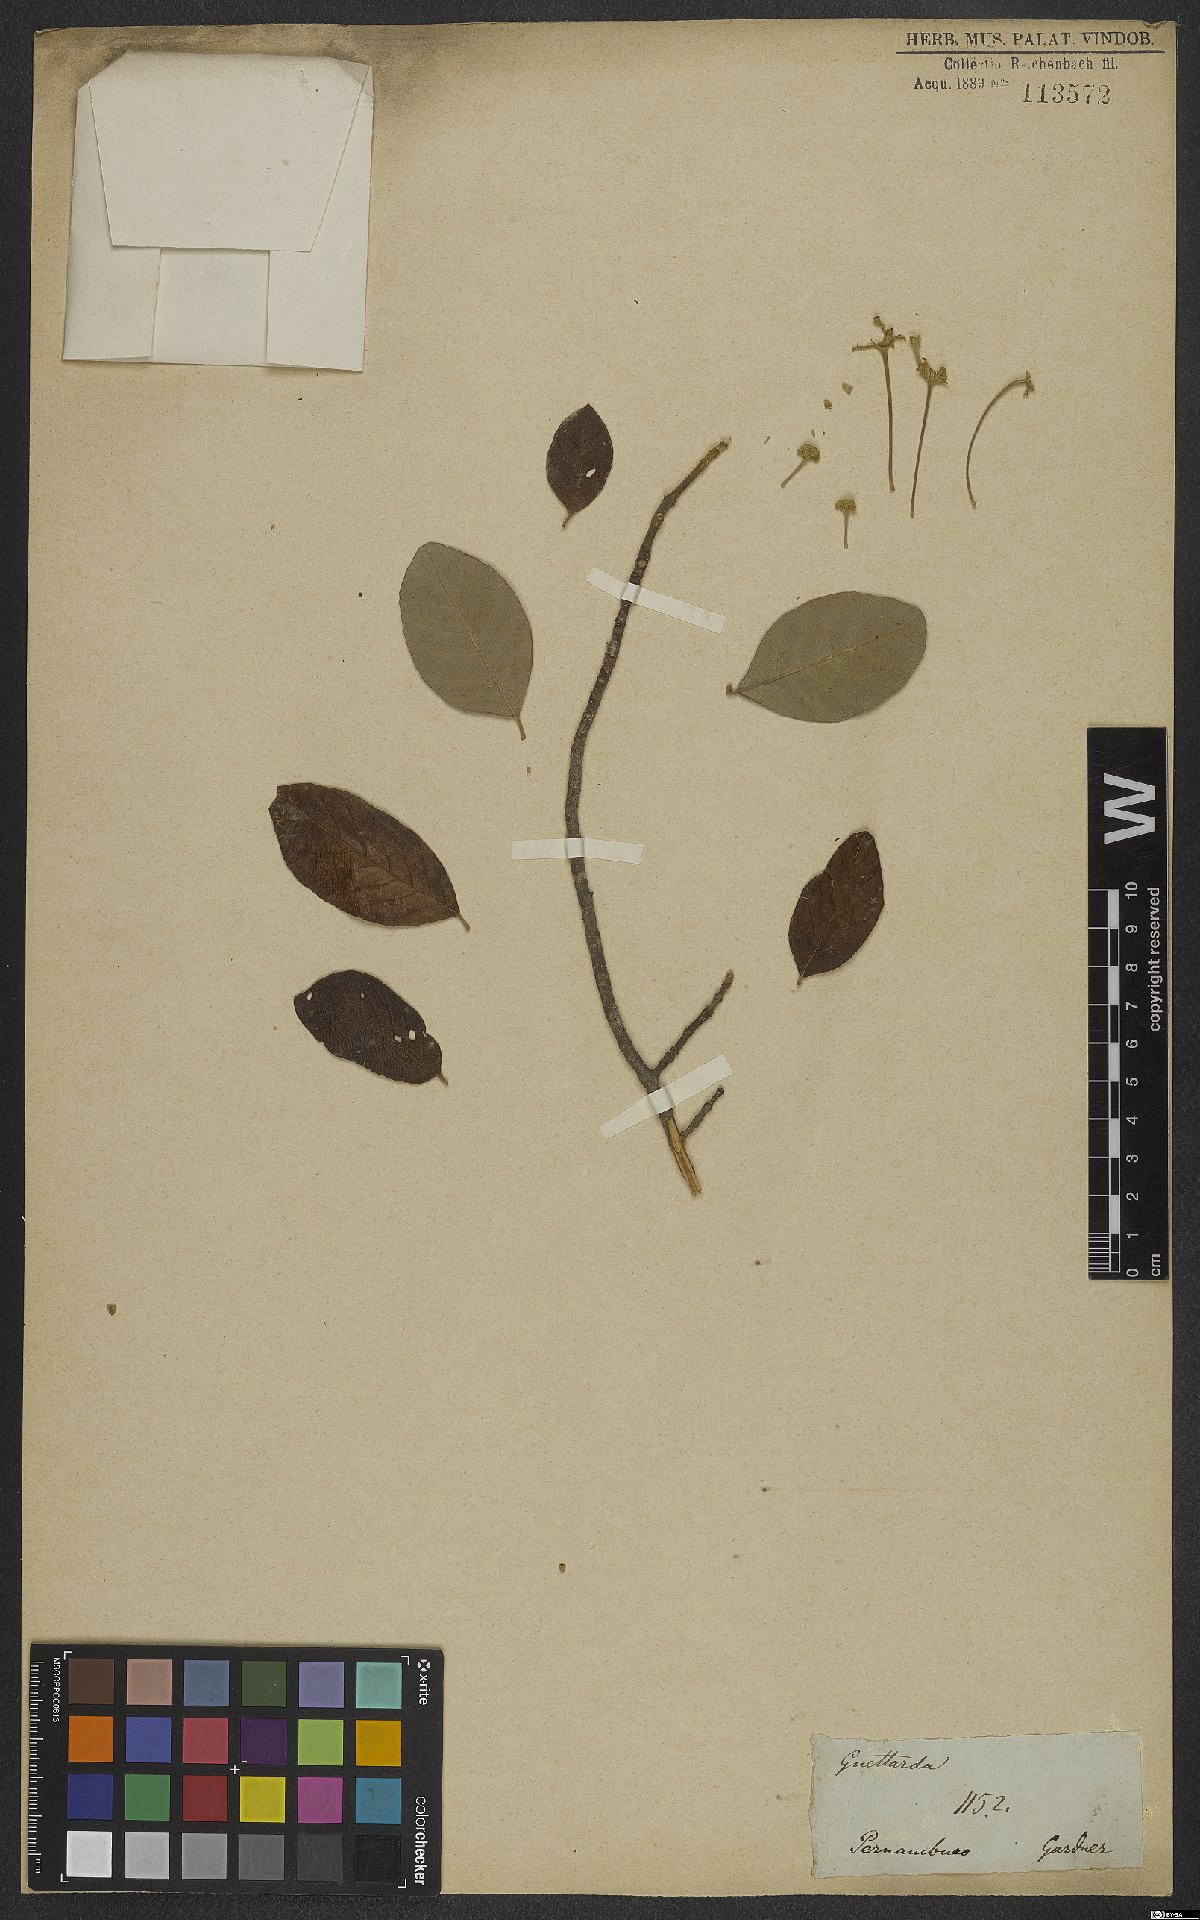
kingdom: Plantae
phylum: Tracheophyta
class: Magnoliopsida
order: Gentianales
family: Rubiaceae
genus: Guettarda
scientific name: Guettarda platypoda
